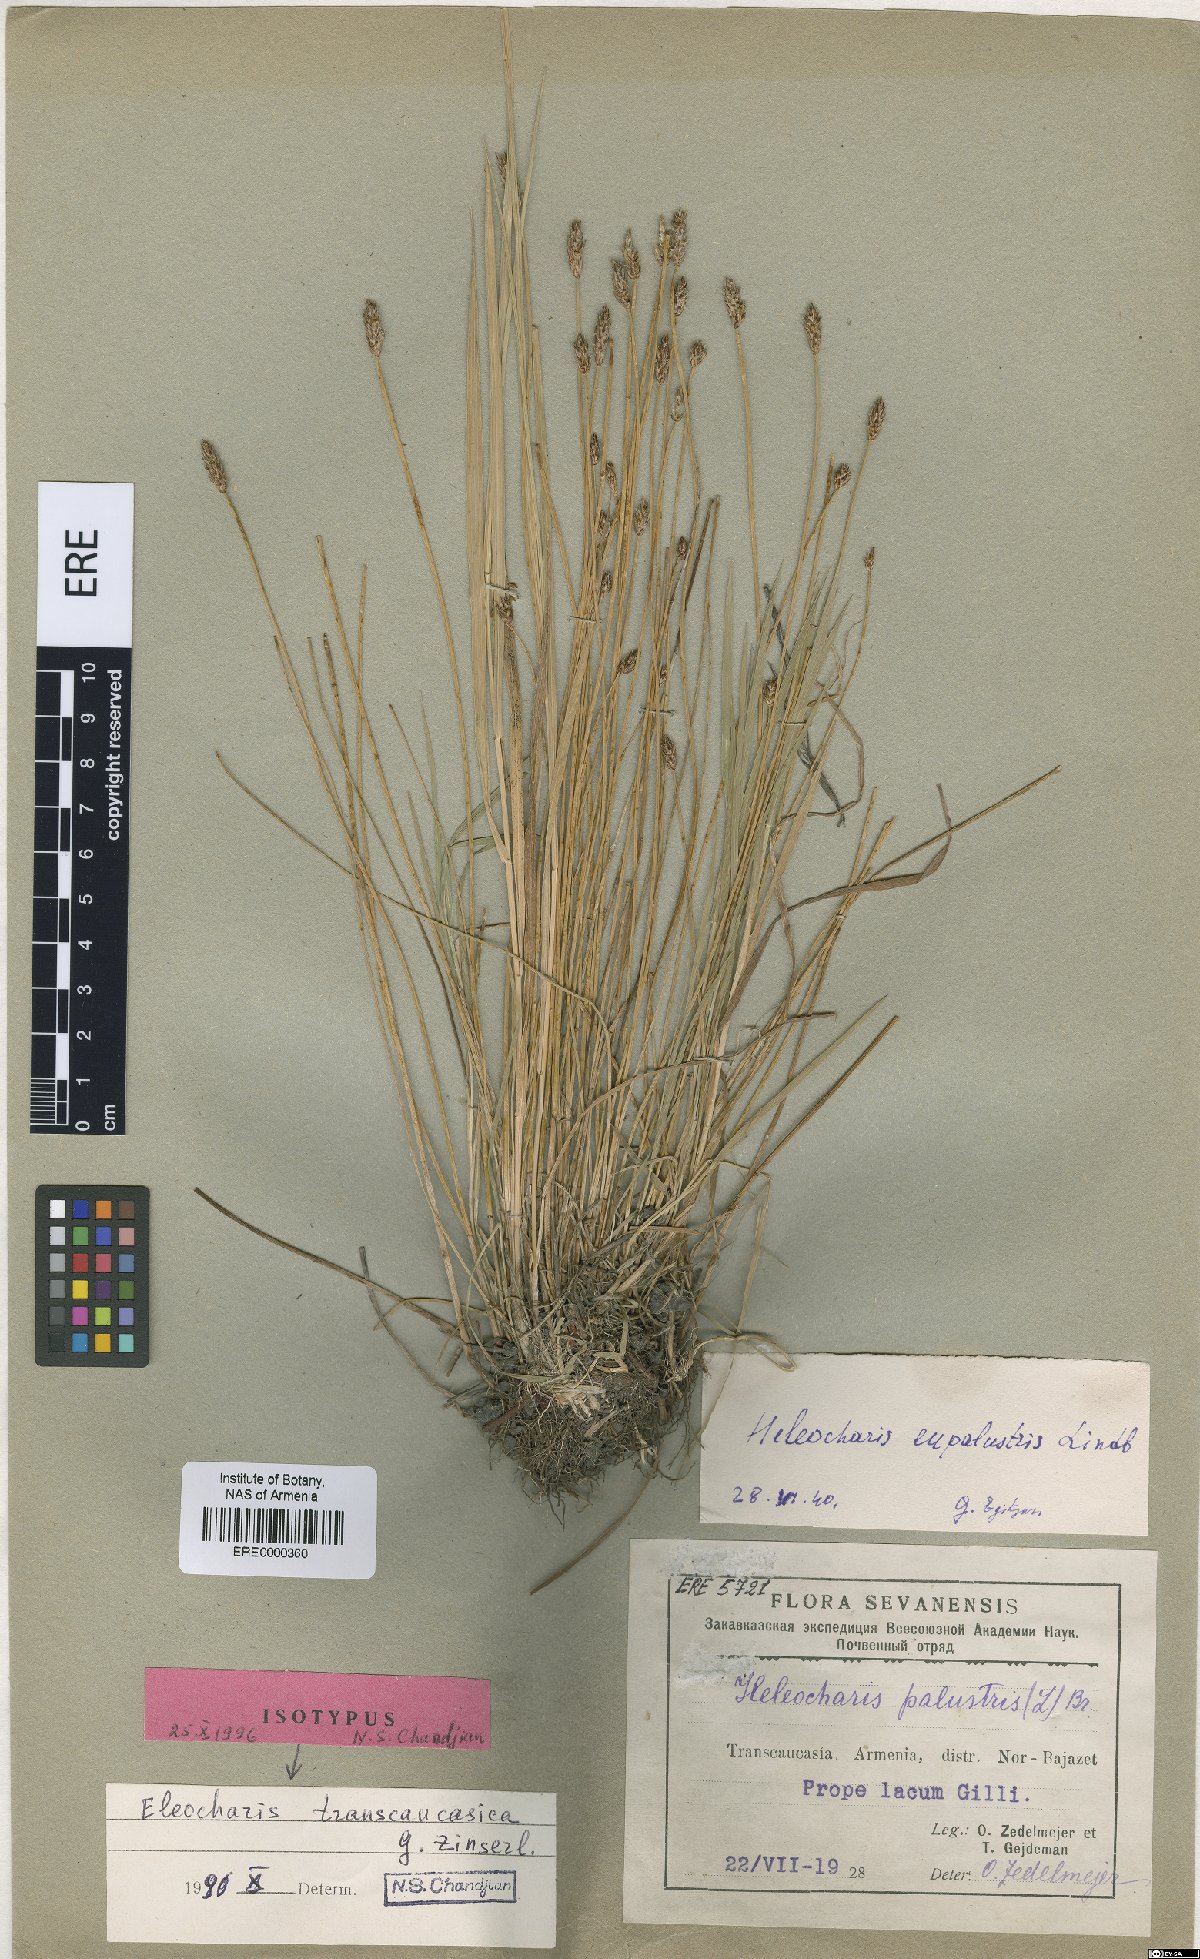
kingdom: Plantae
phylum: Tracheophyta
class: Liliopsida
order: Poales
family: Cyperaceae
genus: Eleocharis
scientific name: Eleocharis uniglumis
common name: Slender spike-rush
